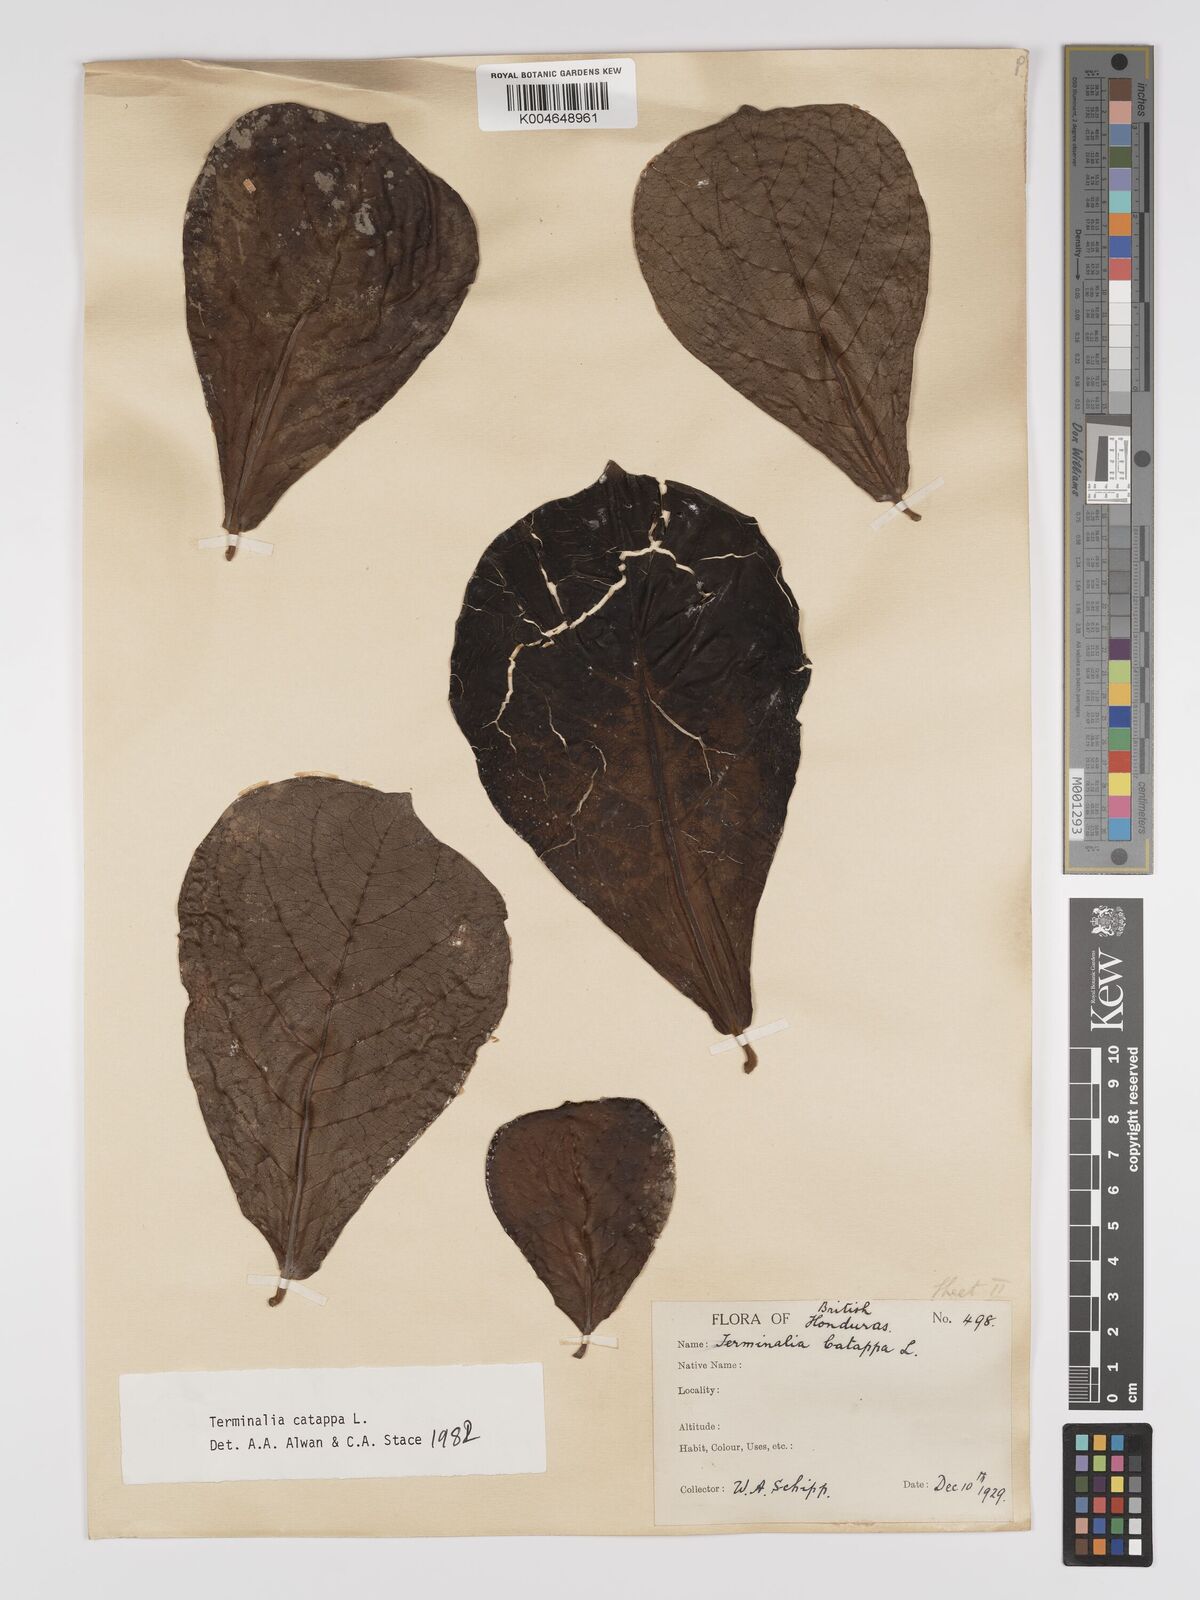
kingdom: Plantae
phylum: Tracheophyta
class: Magnoliopsida
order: Myrtales
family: Combretaceae
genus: Terminalia
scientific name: Terminalia catappa
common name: Tropical almond
